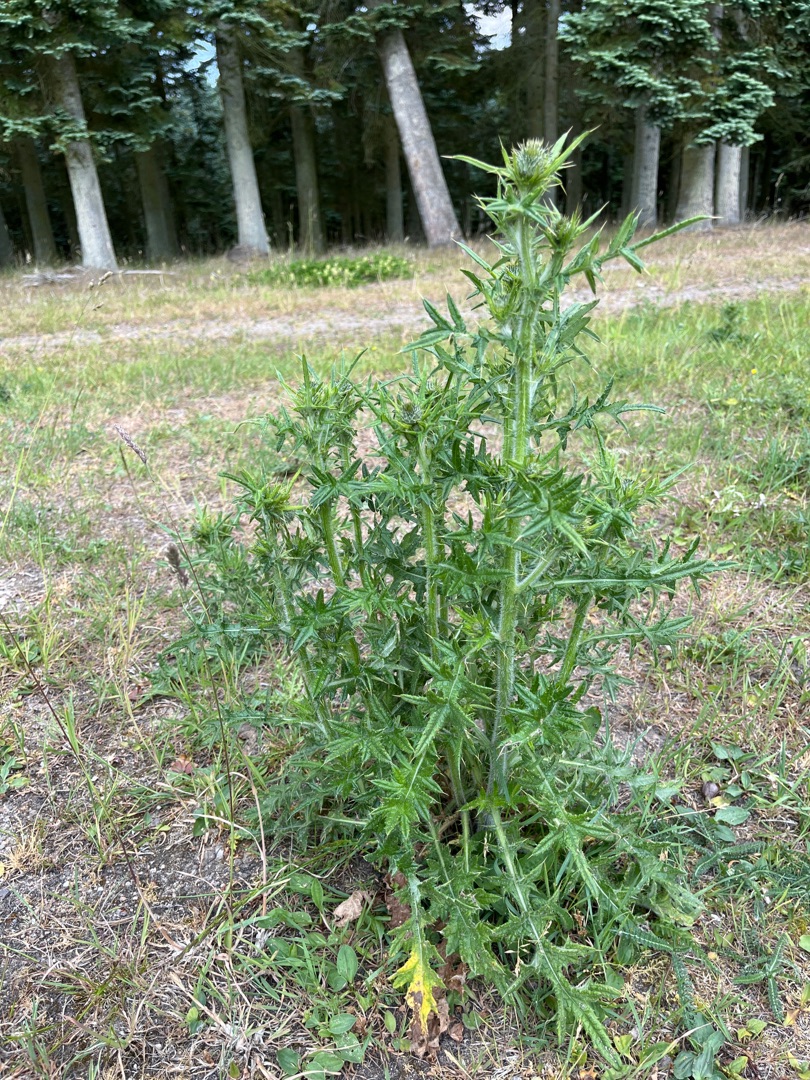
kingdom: Plantae
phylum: Tracheophyta
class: Magnoliopsida
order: Asterales
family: Asteraceae
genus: Cirsium
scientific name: Cirsium vulgare
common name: Horse-tidsel
